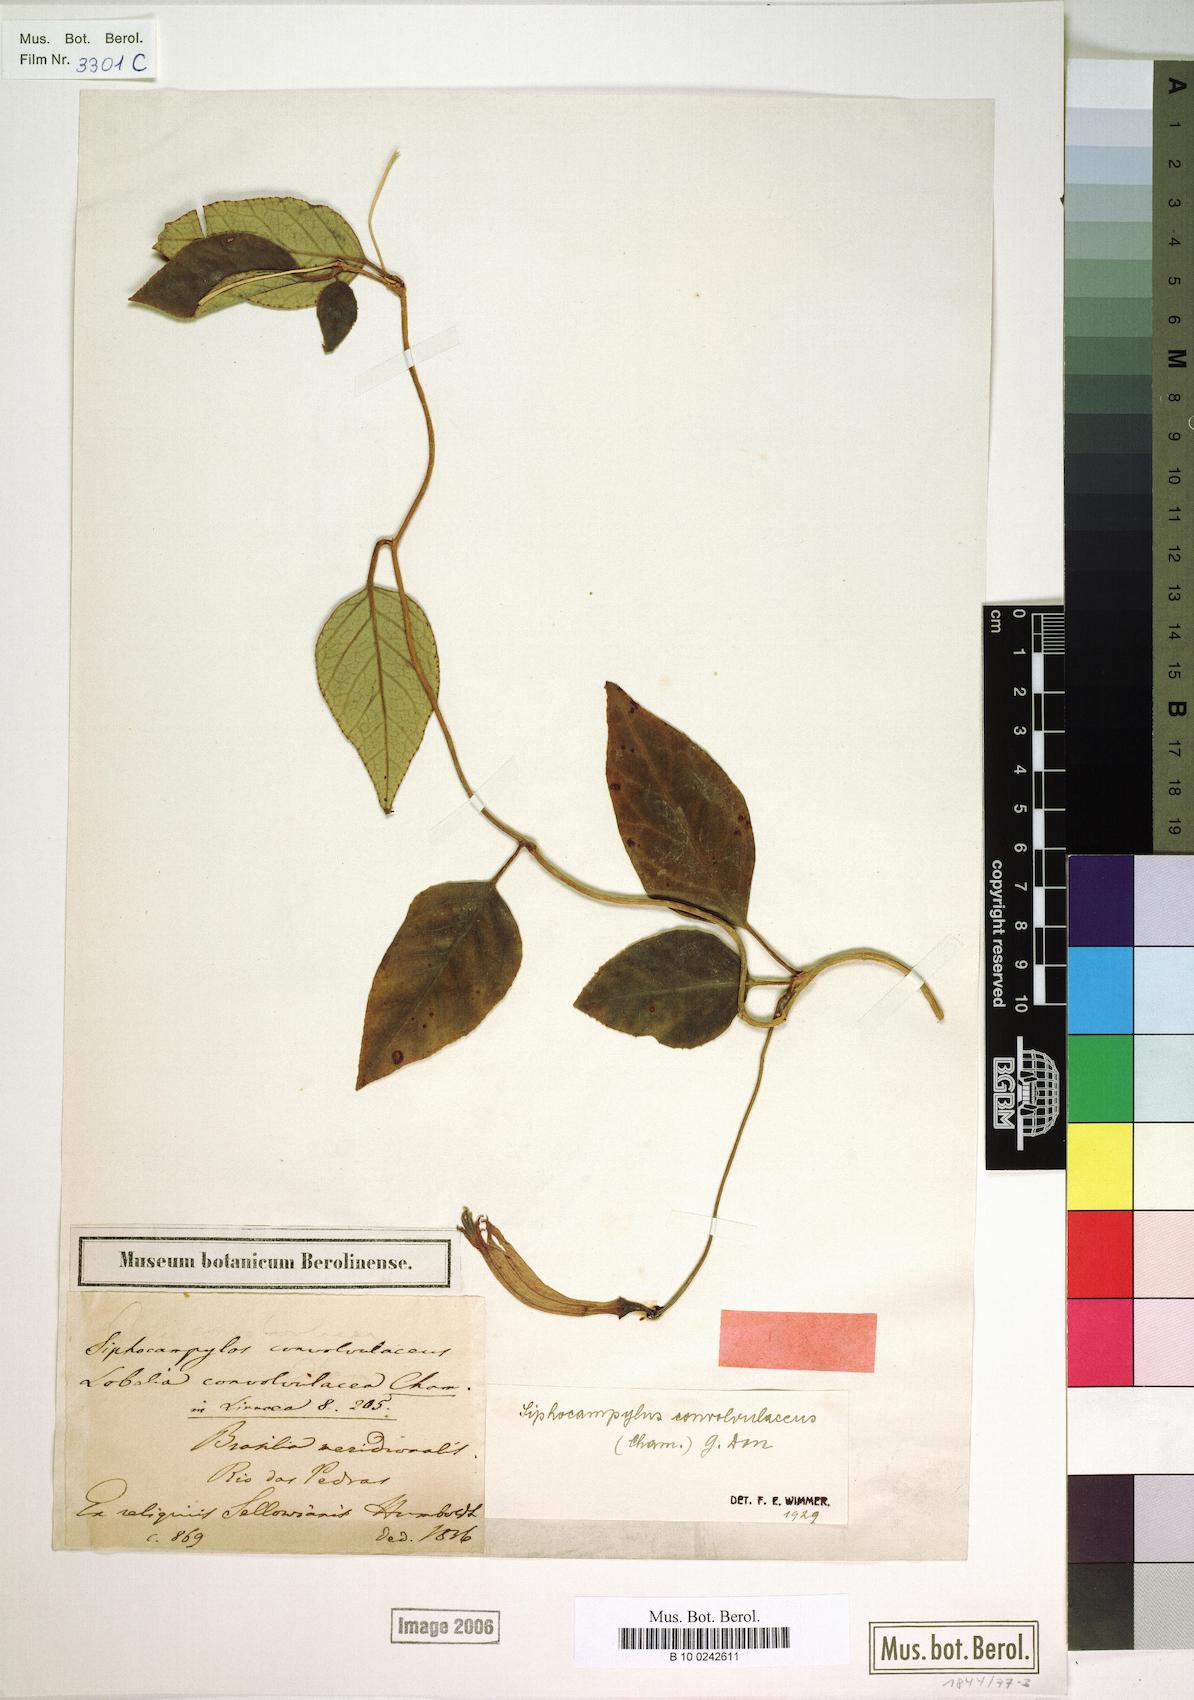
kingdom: Plantae
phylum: Tracheophyta
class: Magnoliopsida
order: Asterales
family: Campanulaceae
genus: Siphocampylus
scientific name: Siphocampylus convolvulaceus
